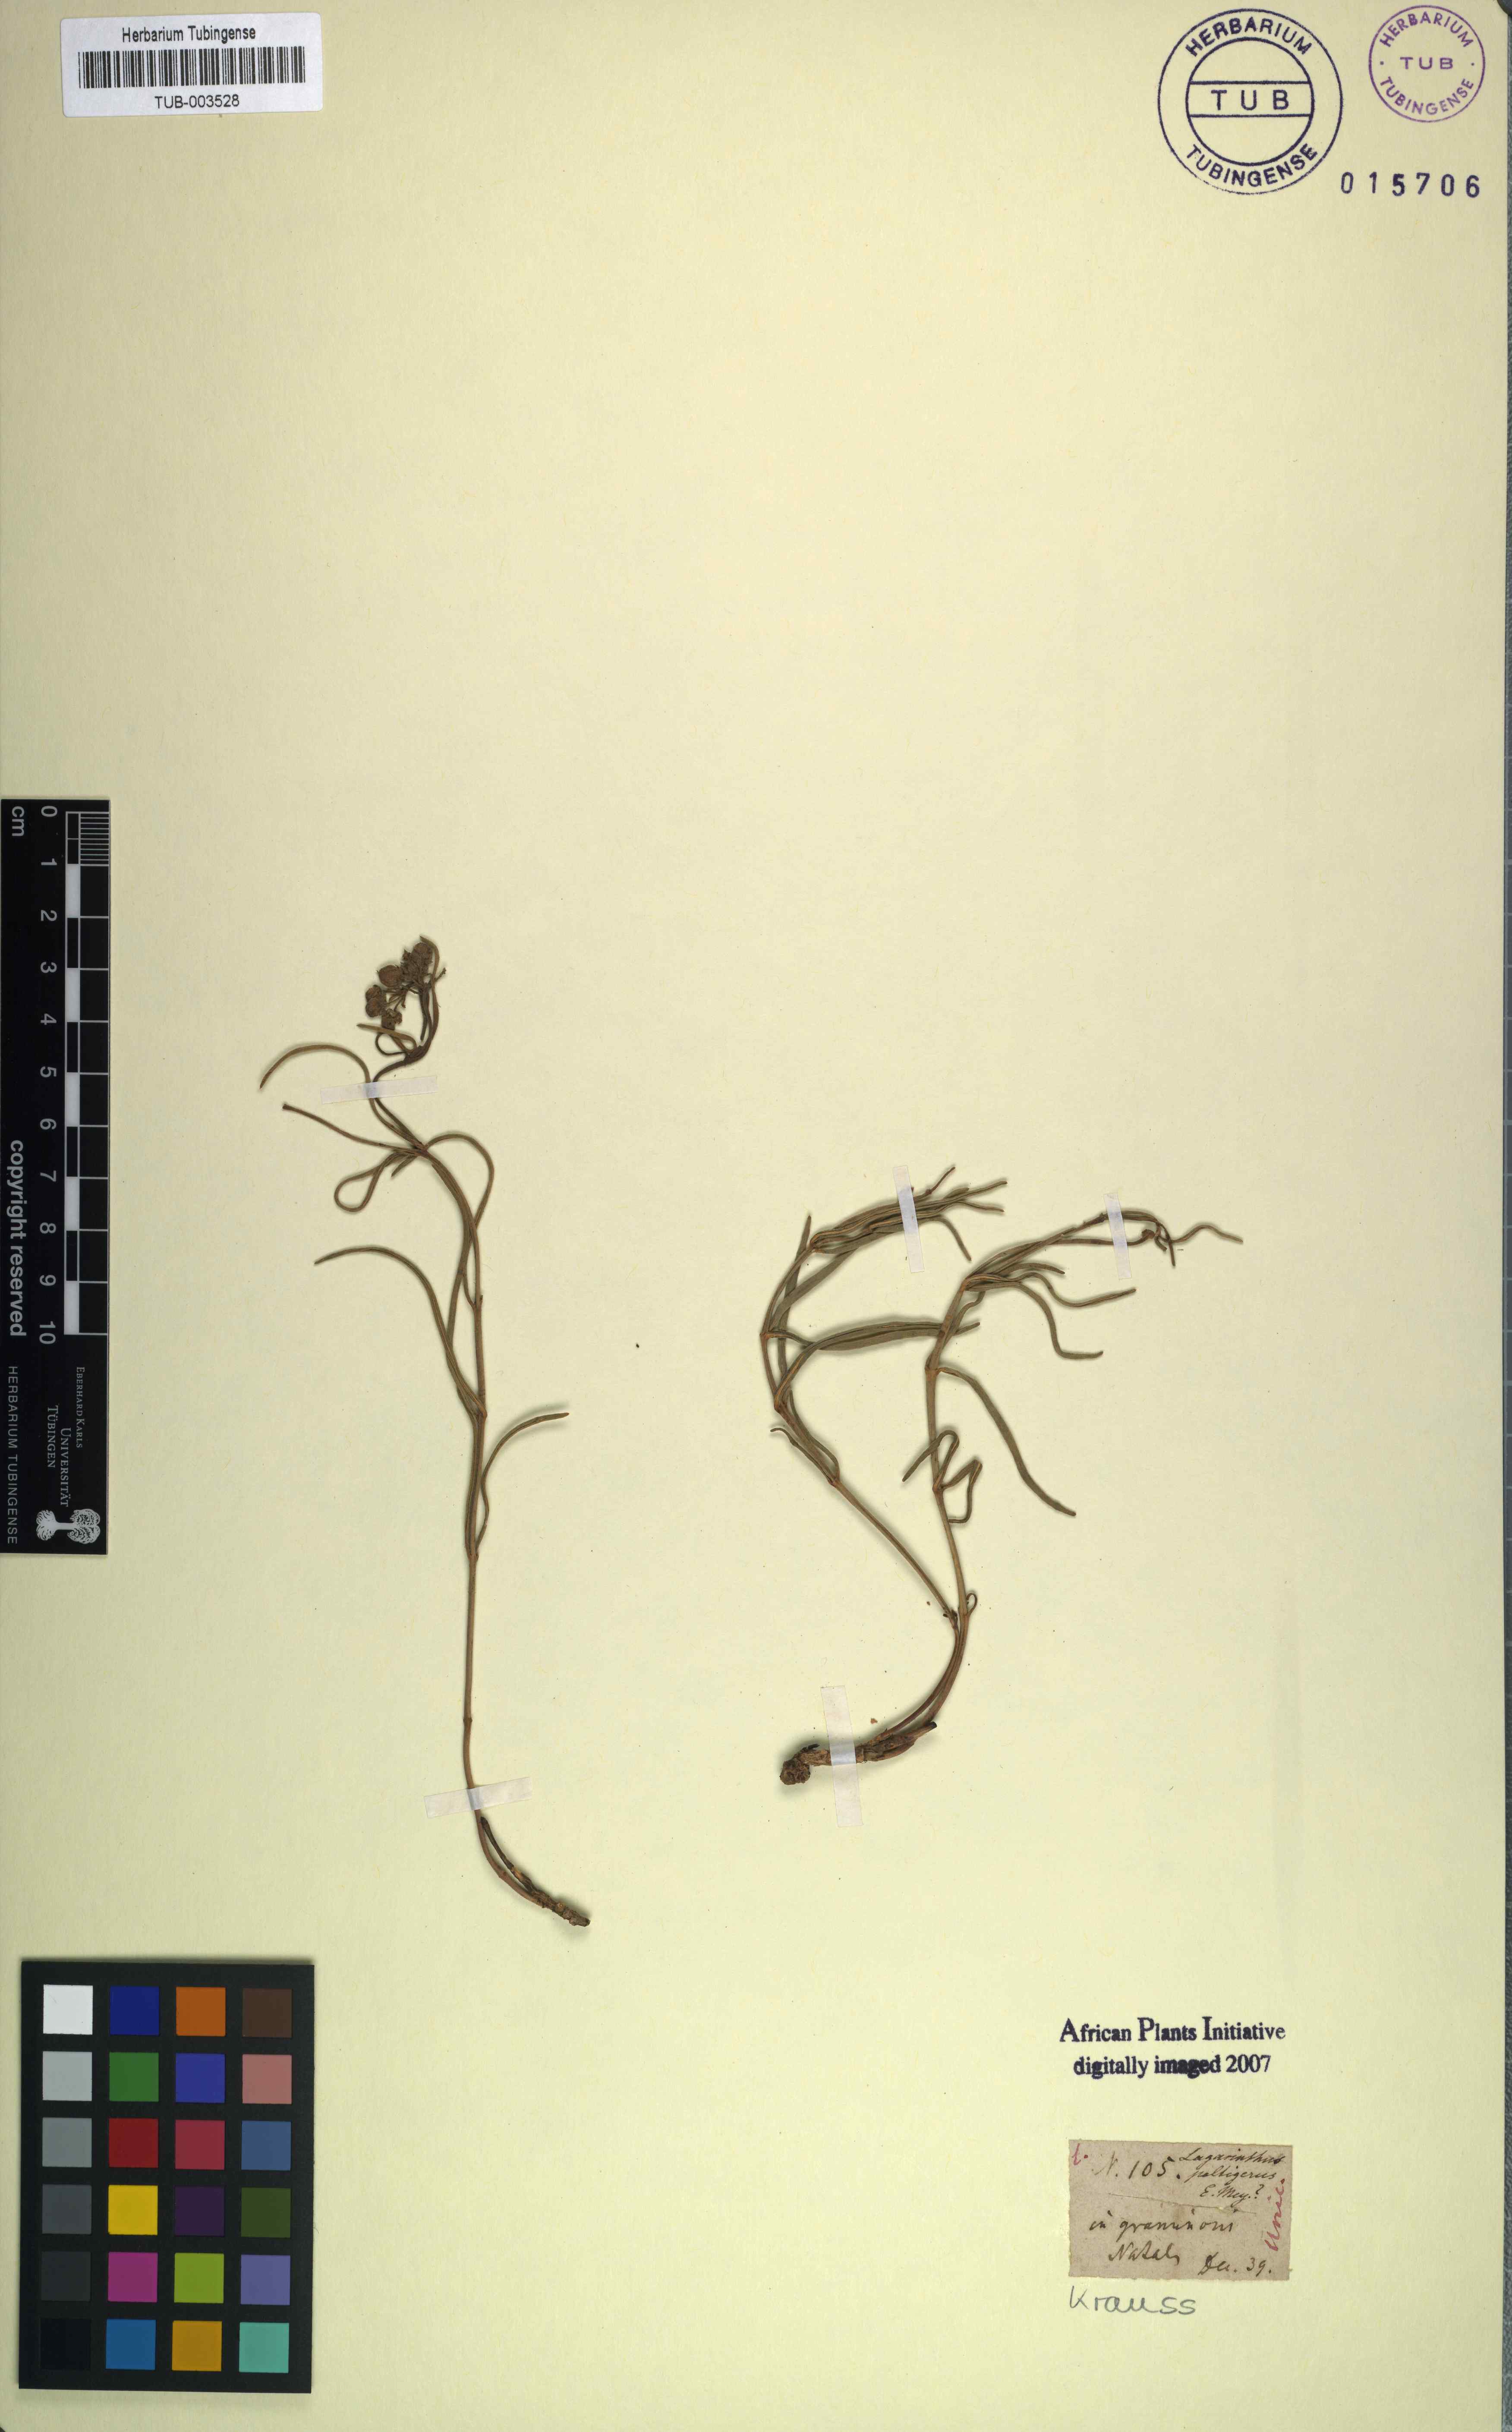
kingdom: Plantae
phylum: Tracheophyta
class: Magnoliopsida
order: Gentianales
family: Apocynaceae
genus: Asclepias
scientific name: Asclepias peltigera
